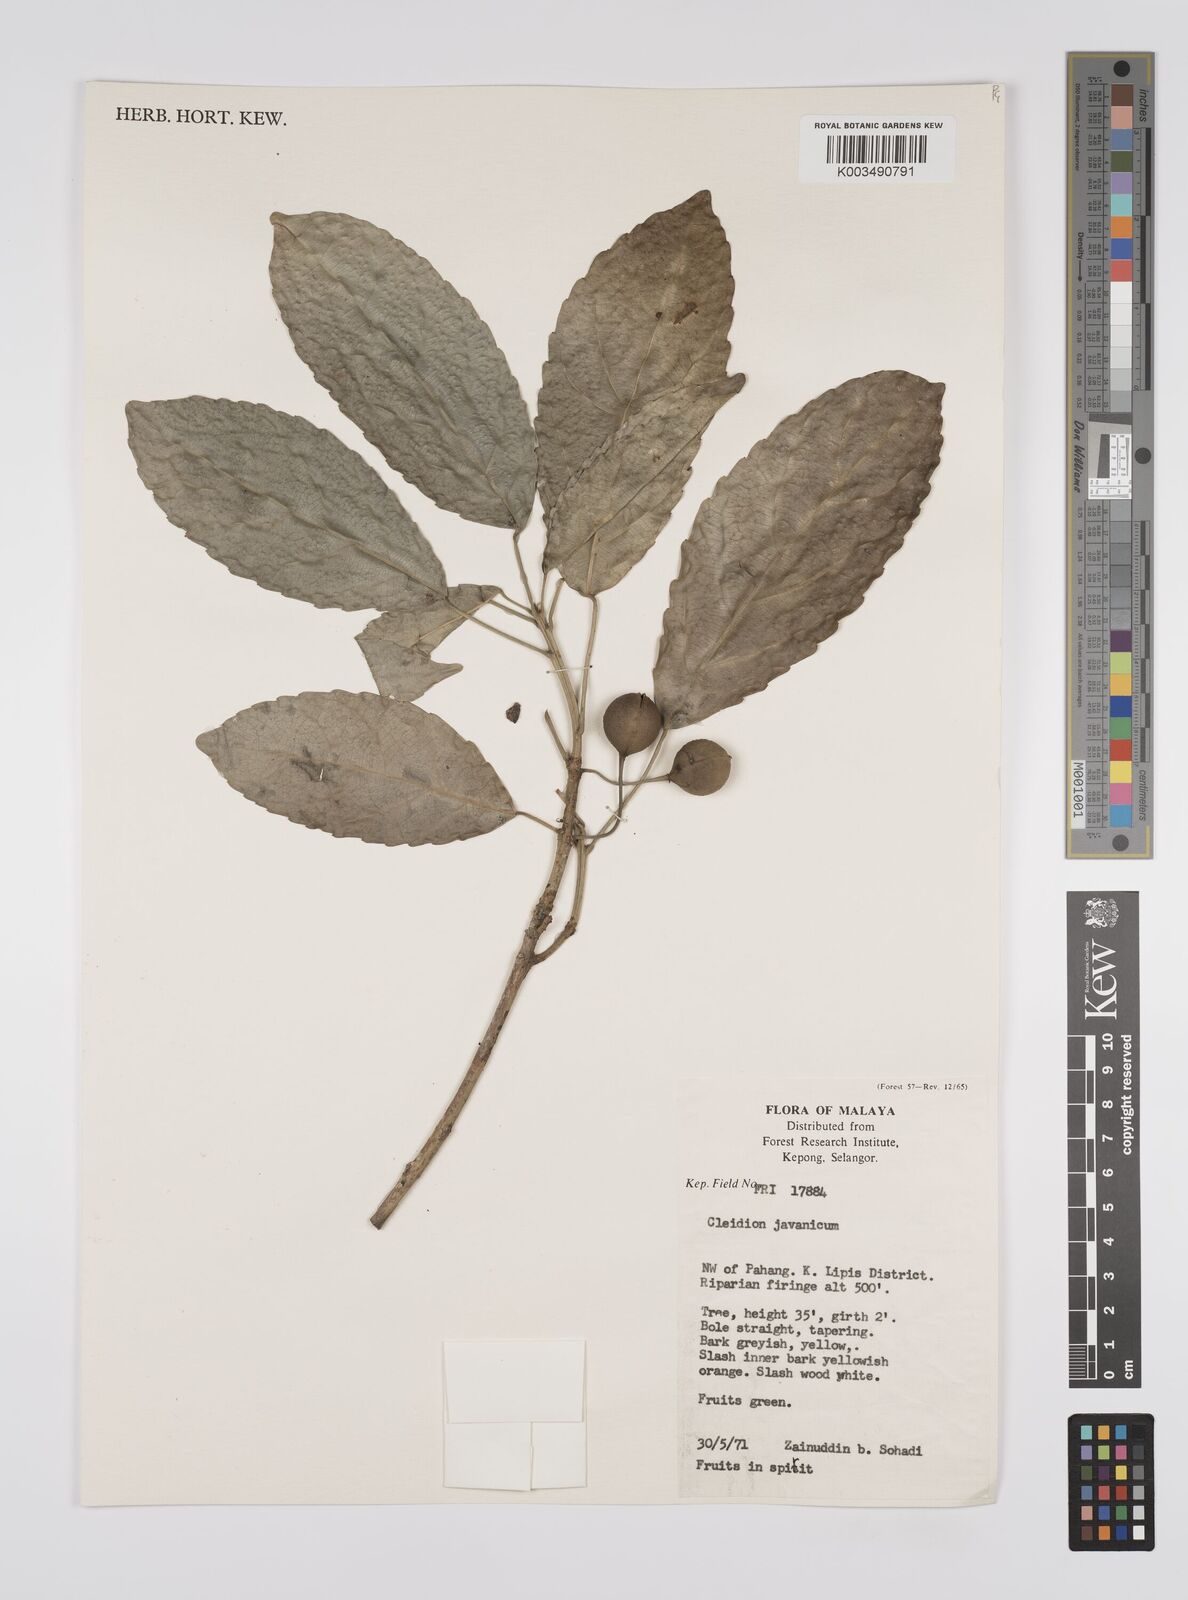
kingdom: Plantae
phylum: Tracheophyta
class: Magnoliopsida
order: Malpighiales
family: Euphorbiaceae
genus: Acalypha
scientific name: Acalypha spiciflora
